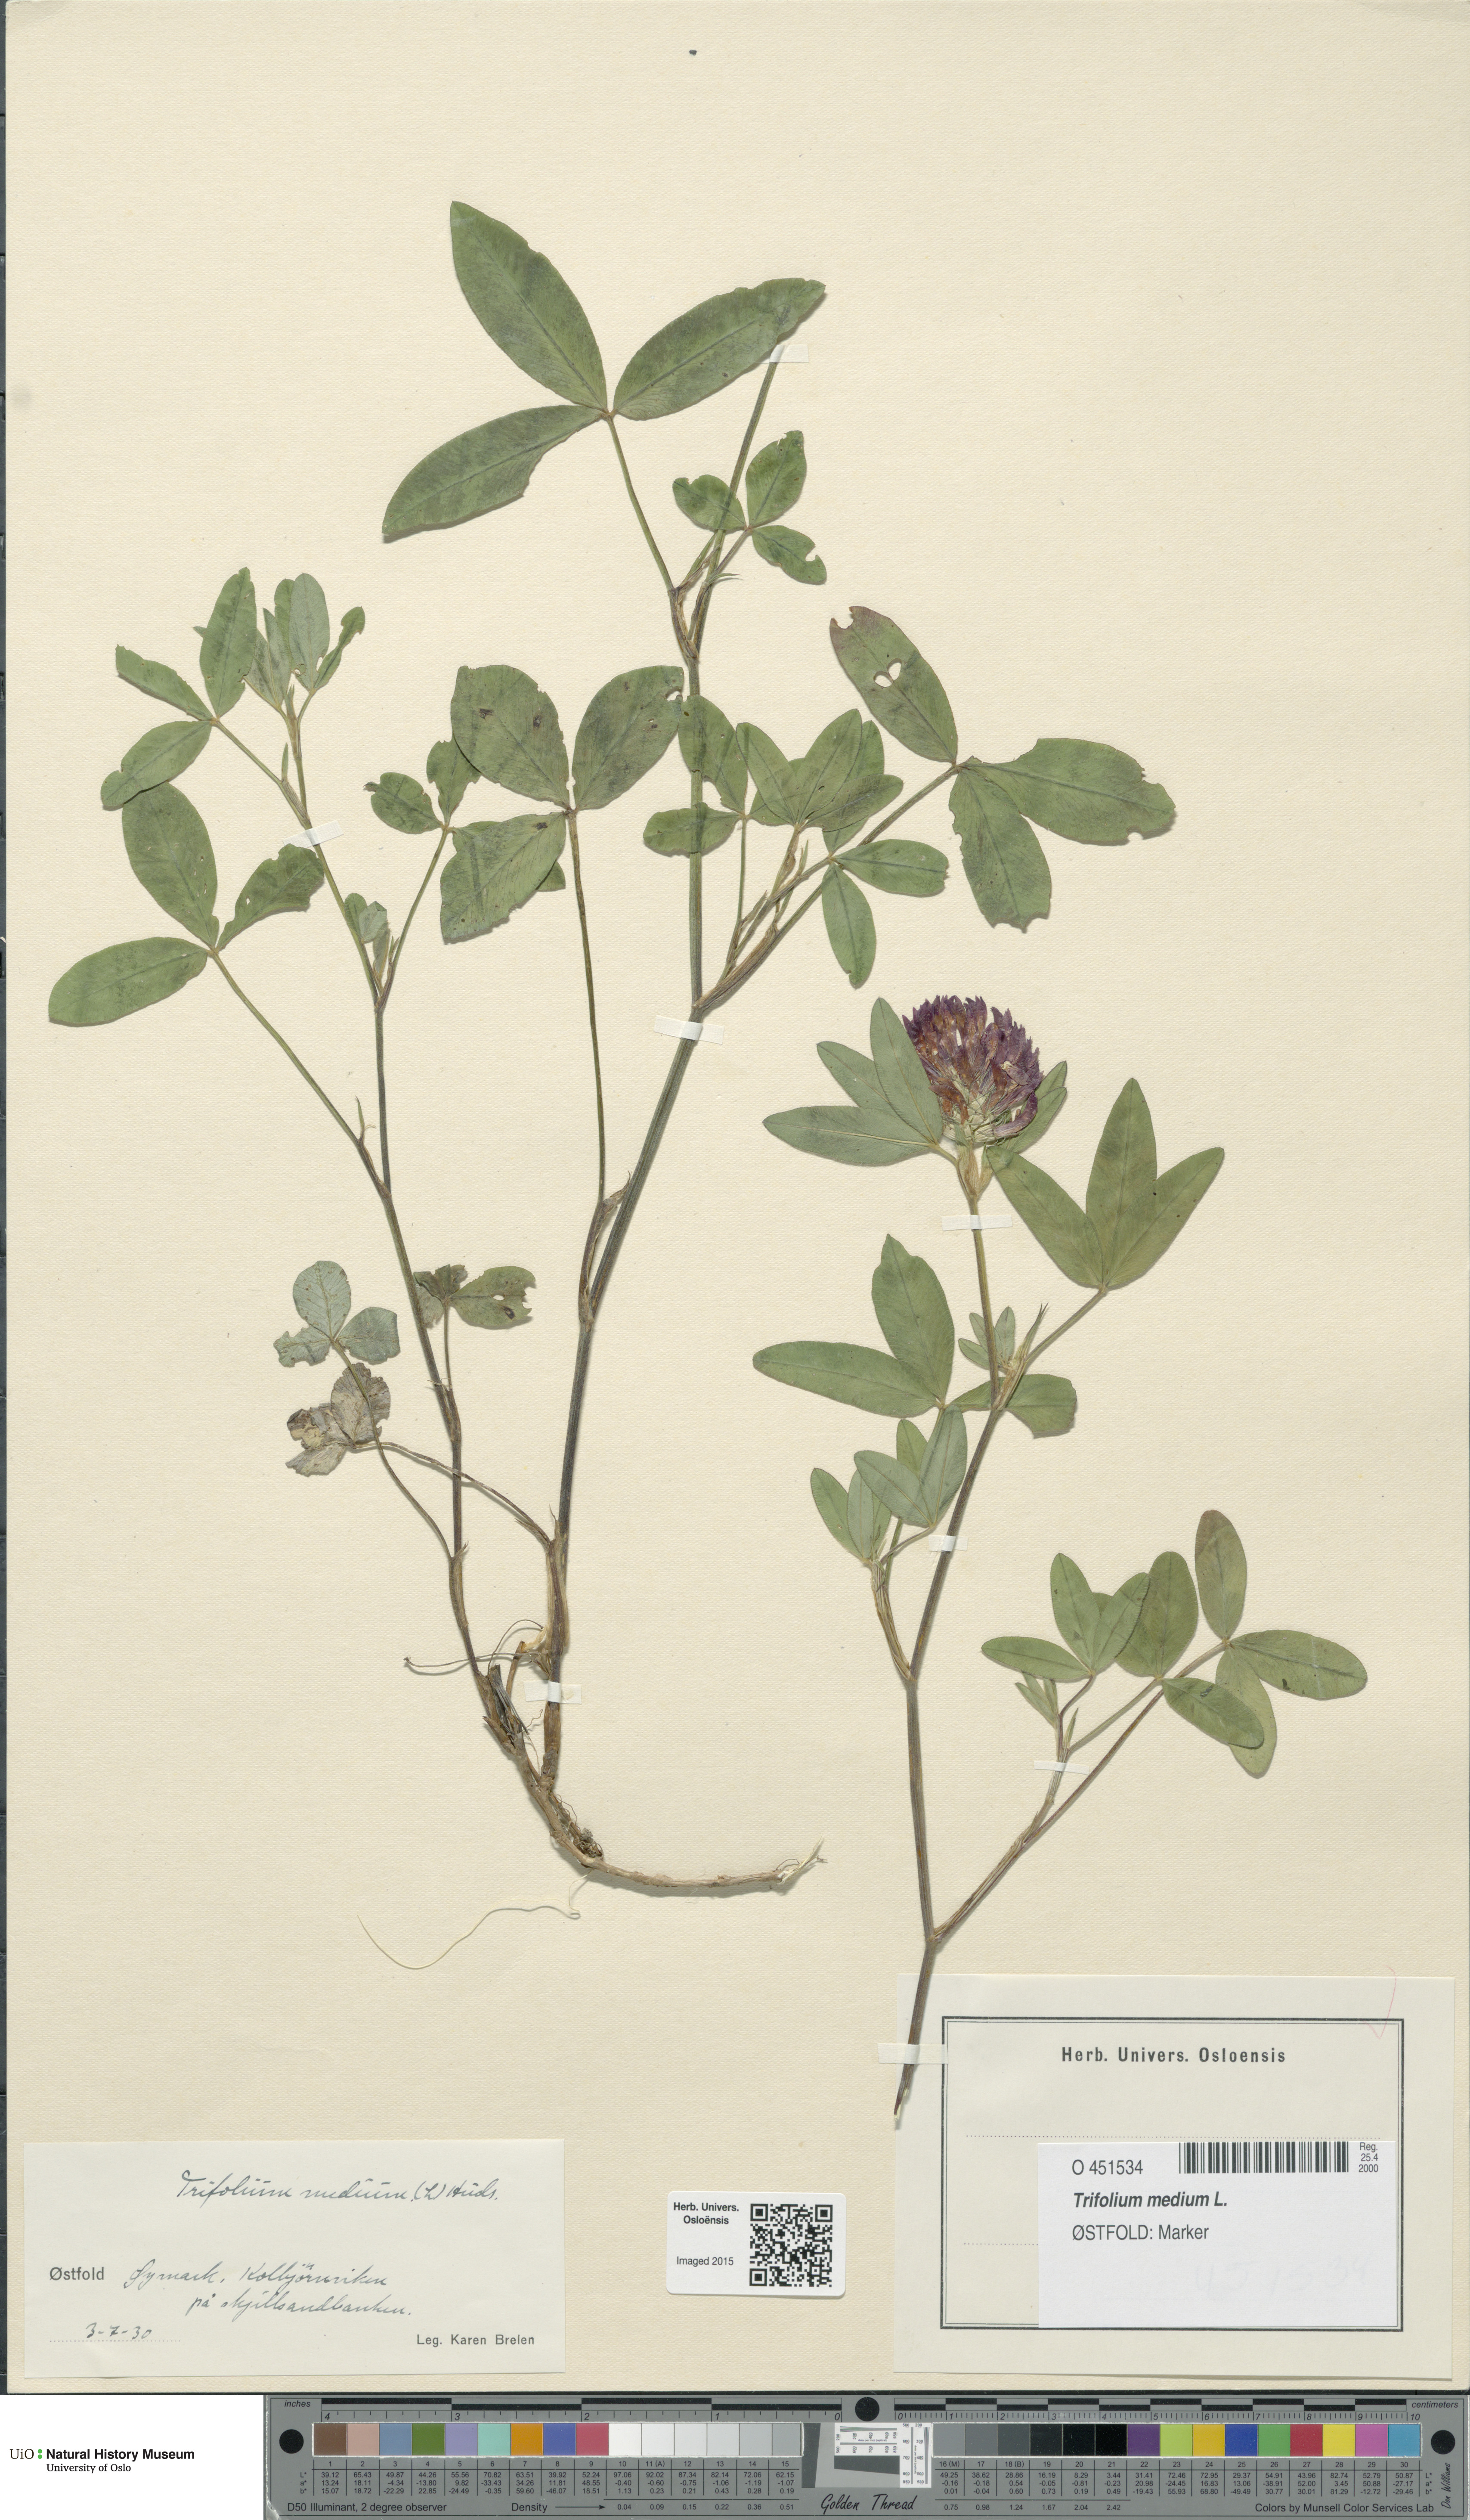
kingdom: Plantae
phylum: Tracheophyta
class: Magnoliopsida
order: Fabales
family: Fabaceae
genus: Trifolium
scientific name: Trifolium medium
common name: Zigzag clover
